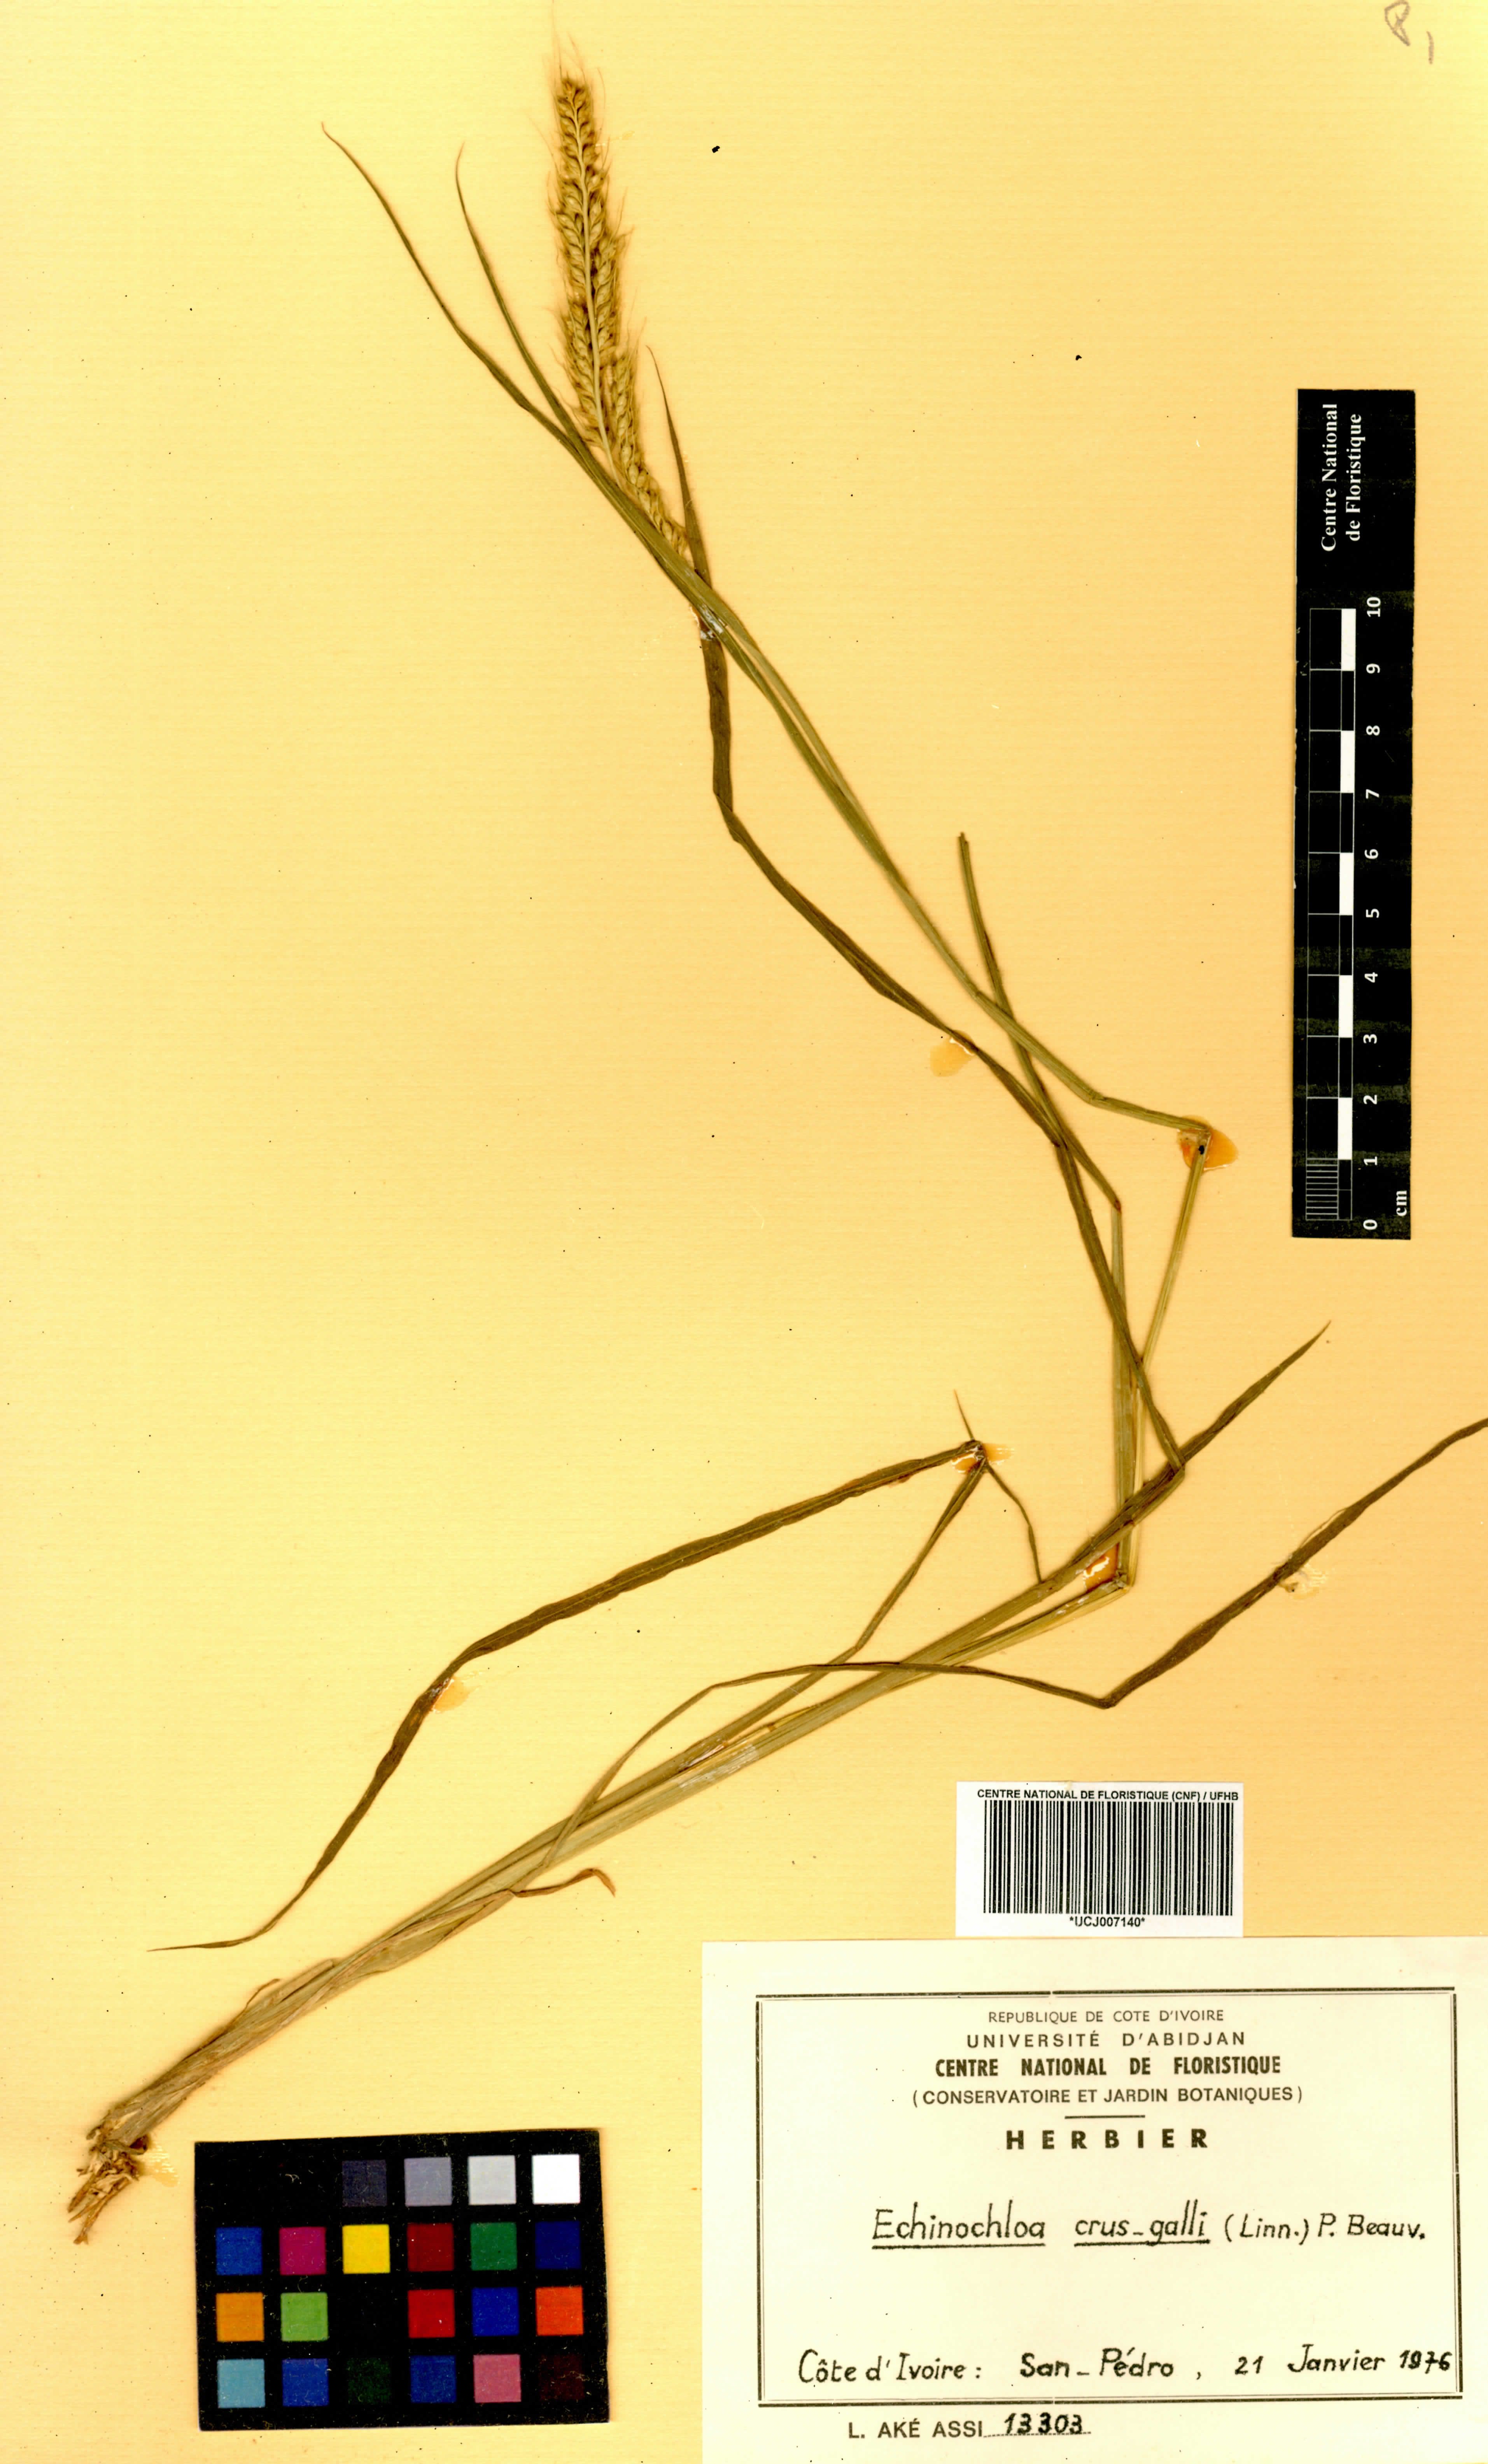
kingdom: Plantae
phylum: Tracheophyta
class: Liliopsida
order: Poales
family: Poaceae
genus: Echinochloa
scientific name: Echinochloa crus-galli
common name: Cockspur
